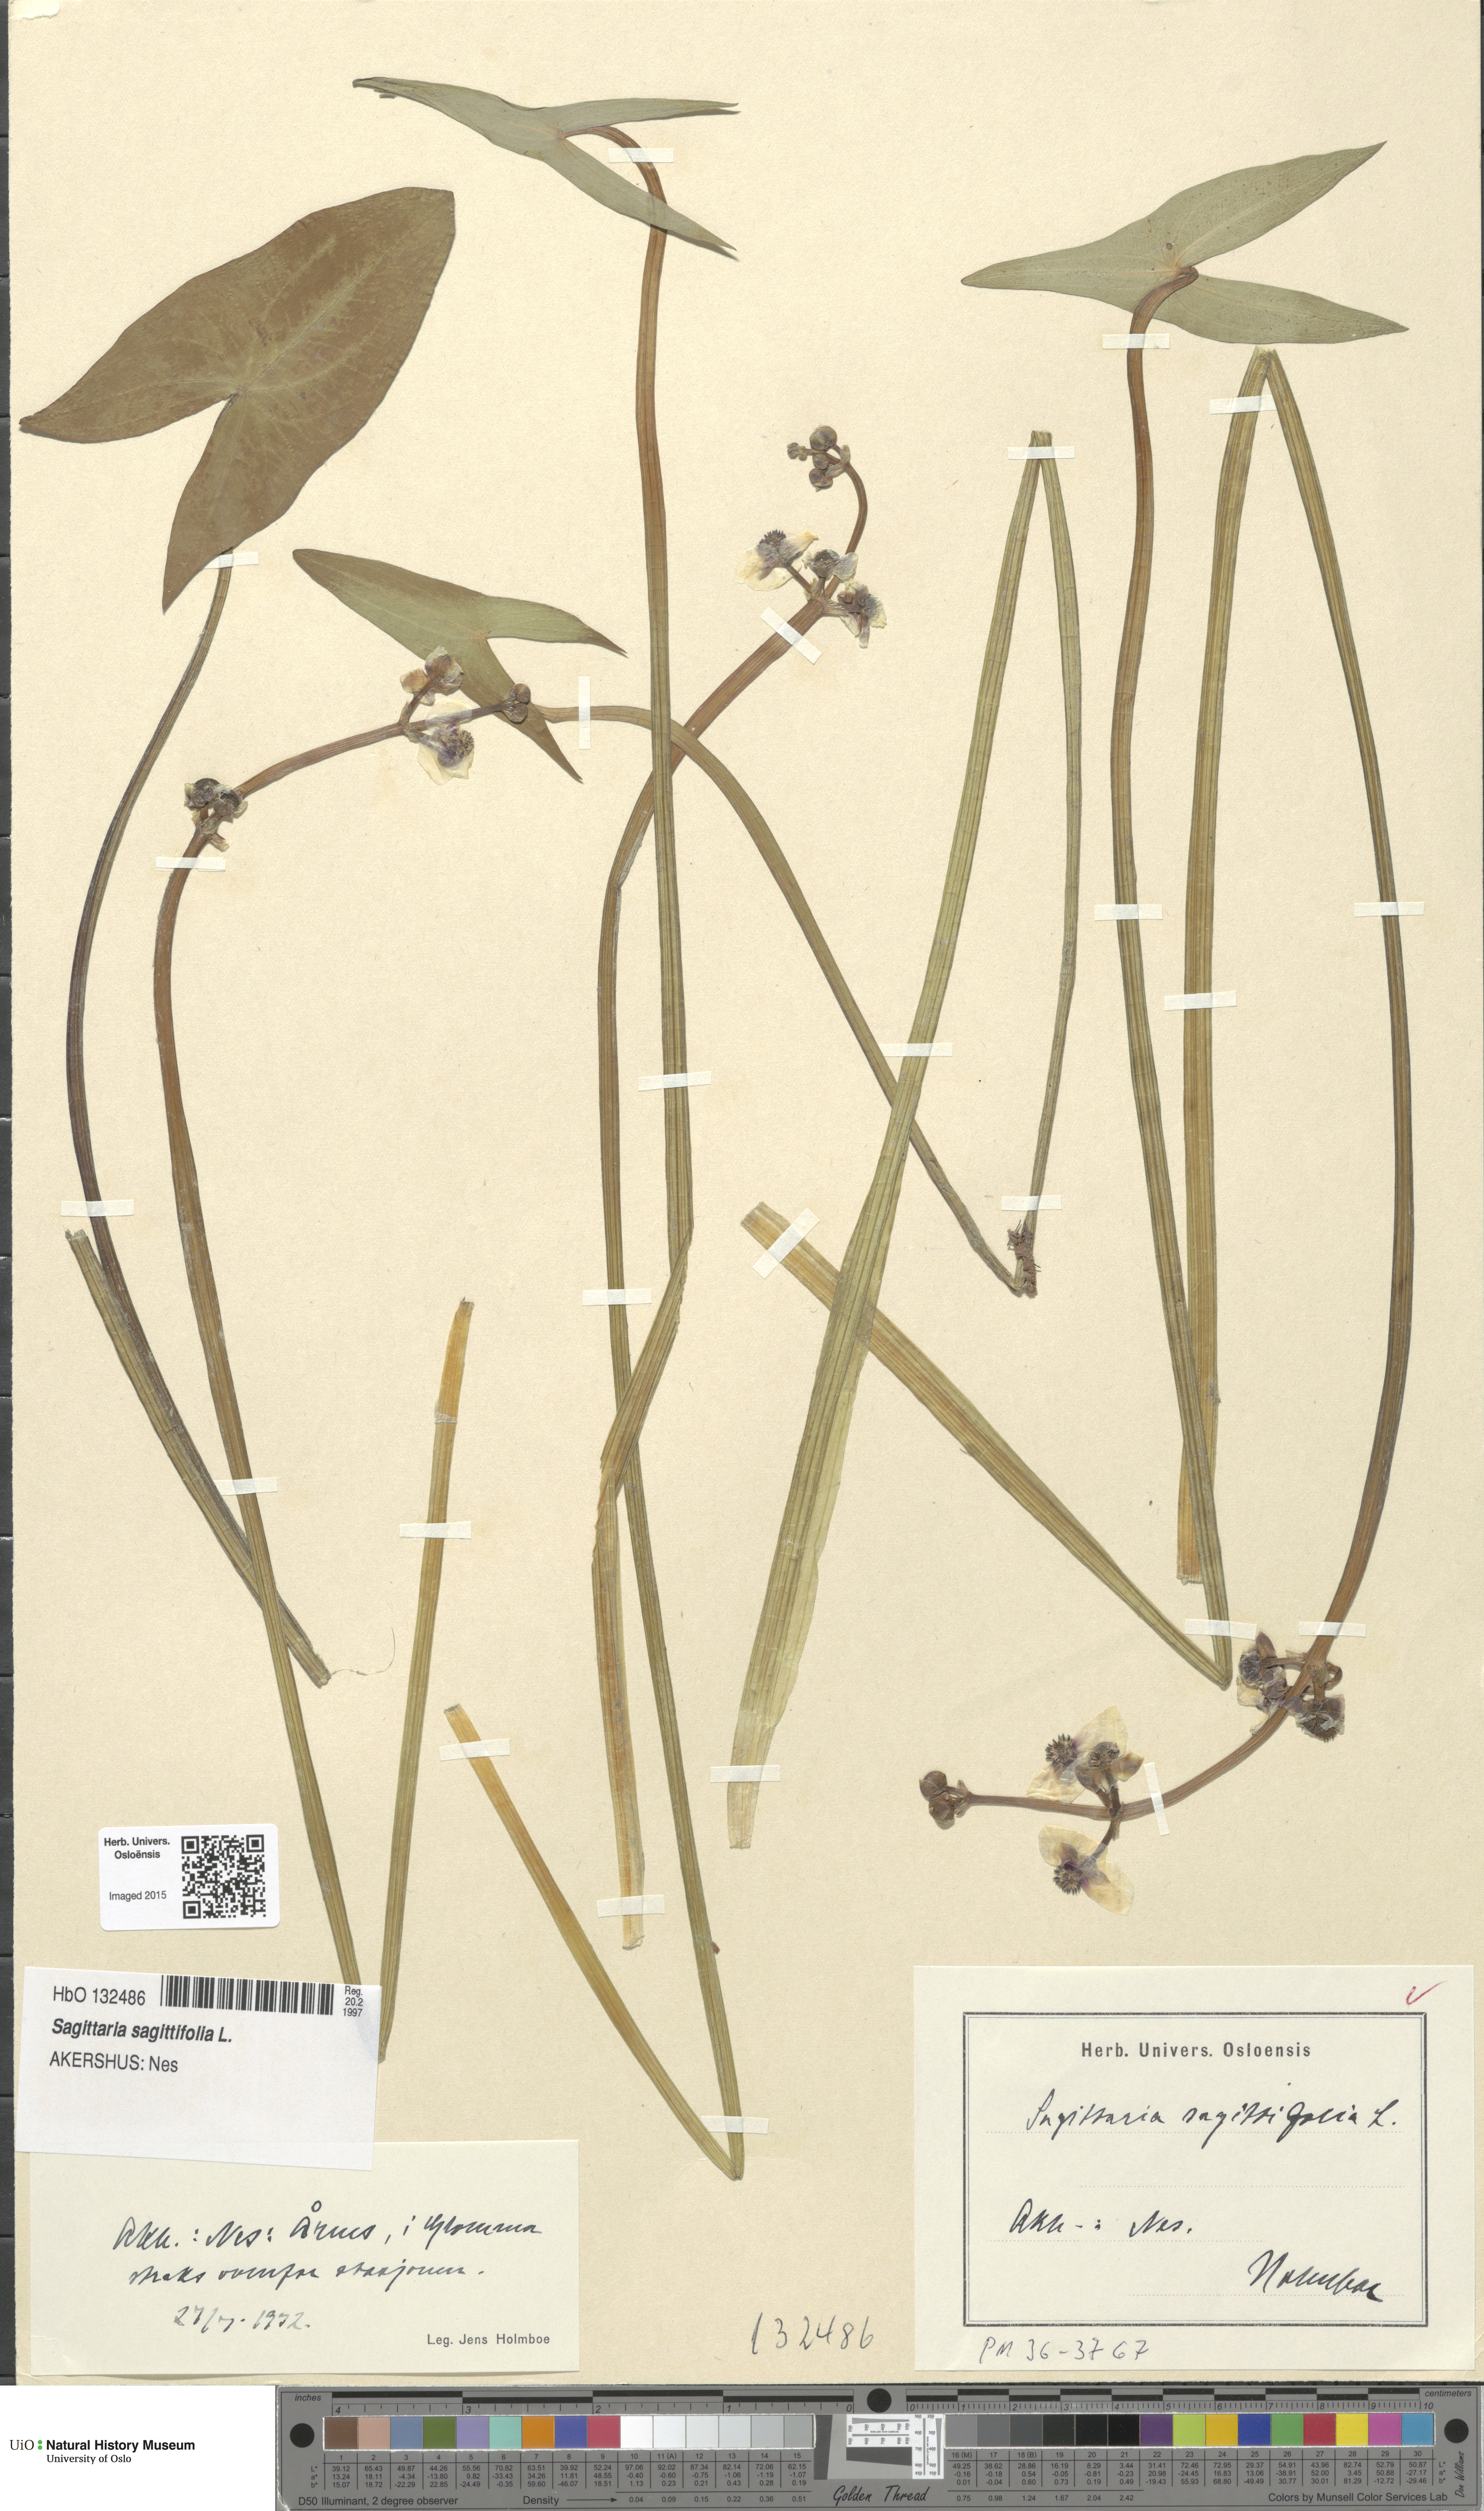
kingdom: Plantae
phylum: Tracheophyta
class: Liliopsida
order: Alismatales
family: Alismataceae
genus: Sagittaria
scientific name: Sagittaria sagittifolia
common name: Arrowhead
